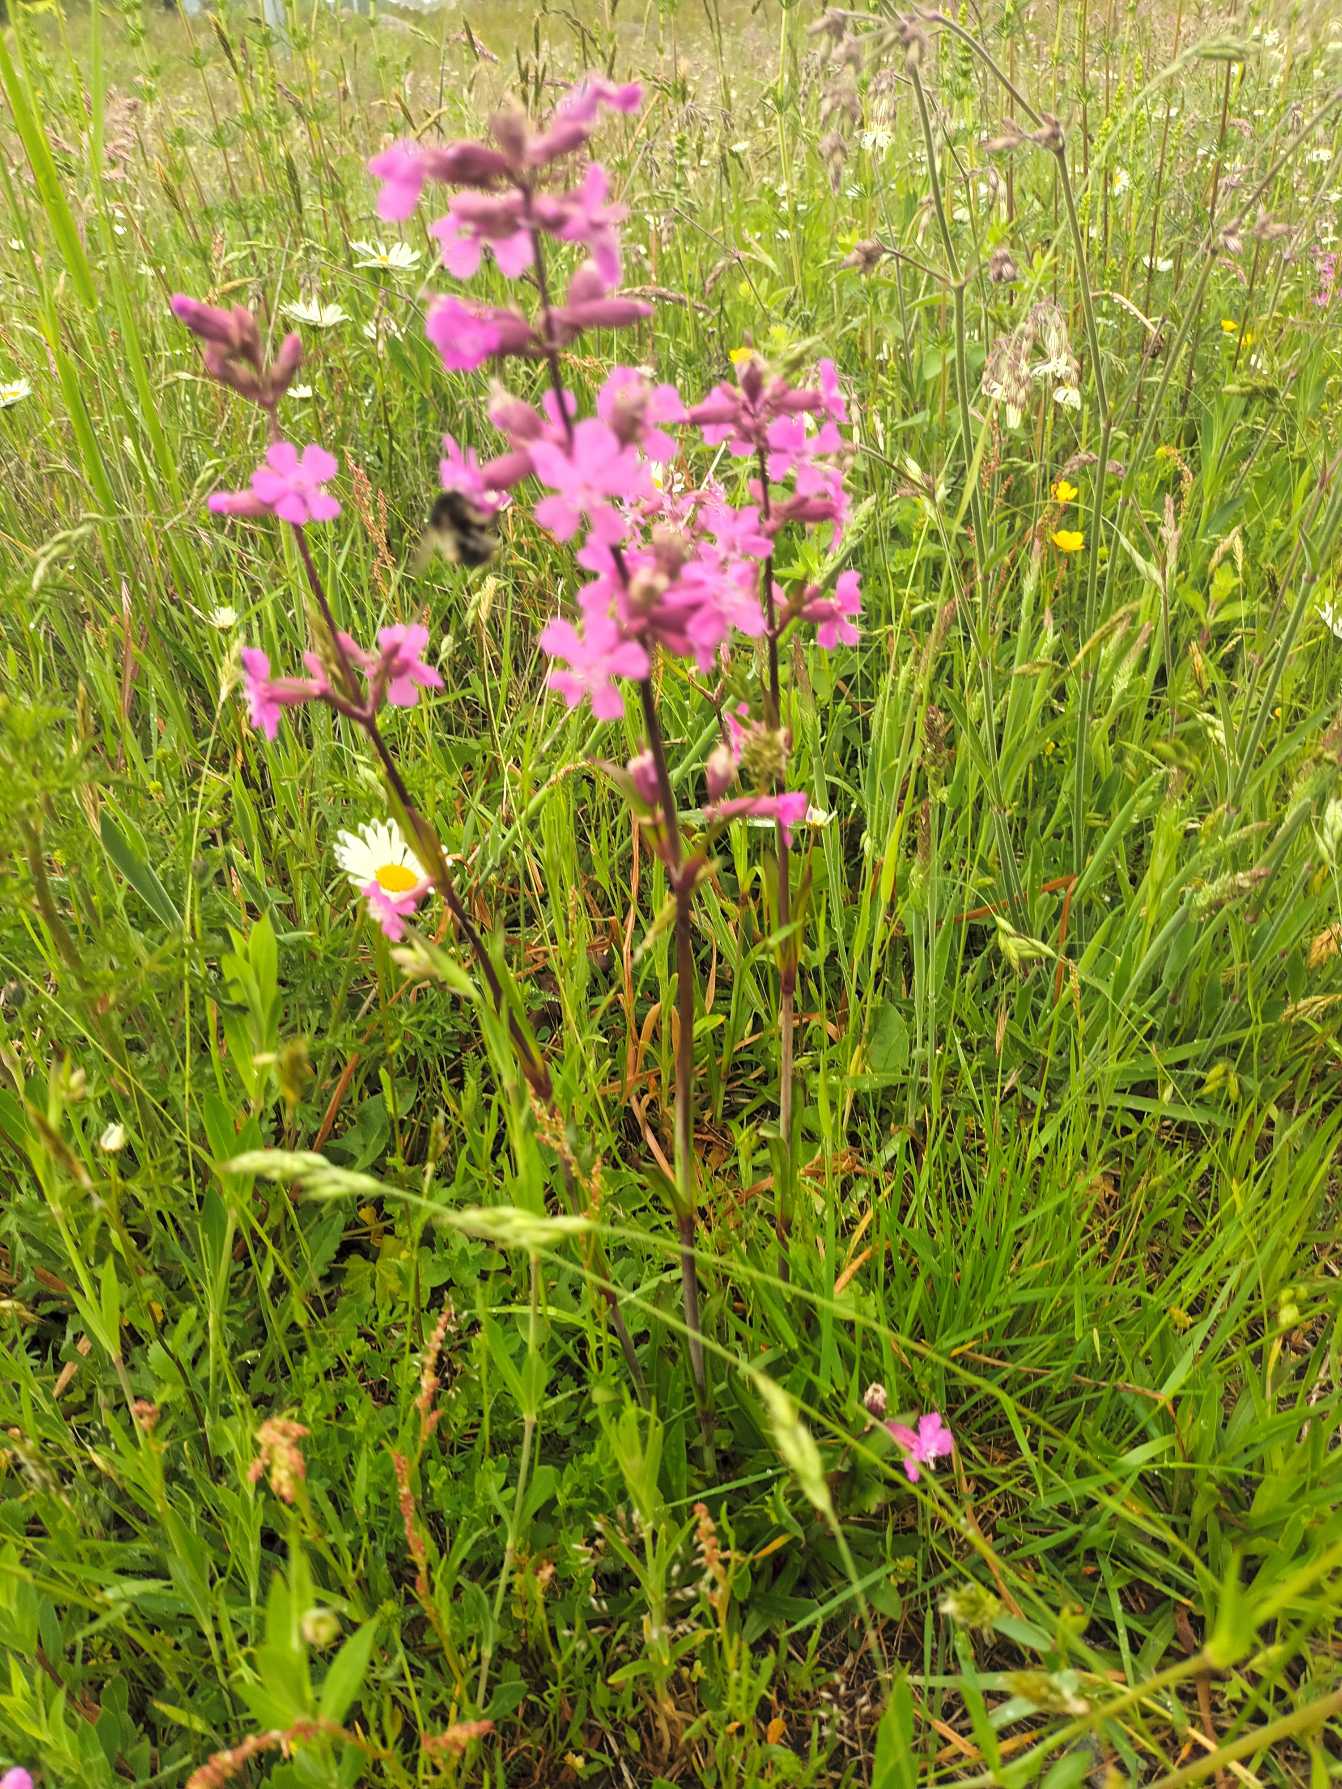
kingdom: Plantae
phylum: Tracheophyta
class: Magnoliopsida
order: Caryophyllales
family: Caryophyllaceae
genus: Viscaria
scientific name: Viscaria vulgaris
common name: Tjærenellike
